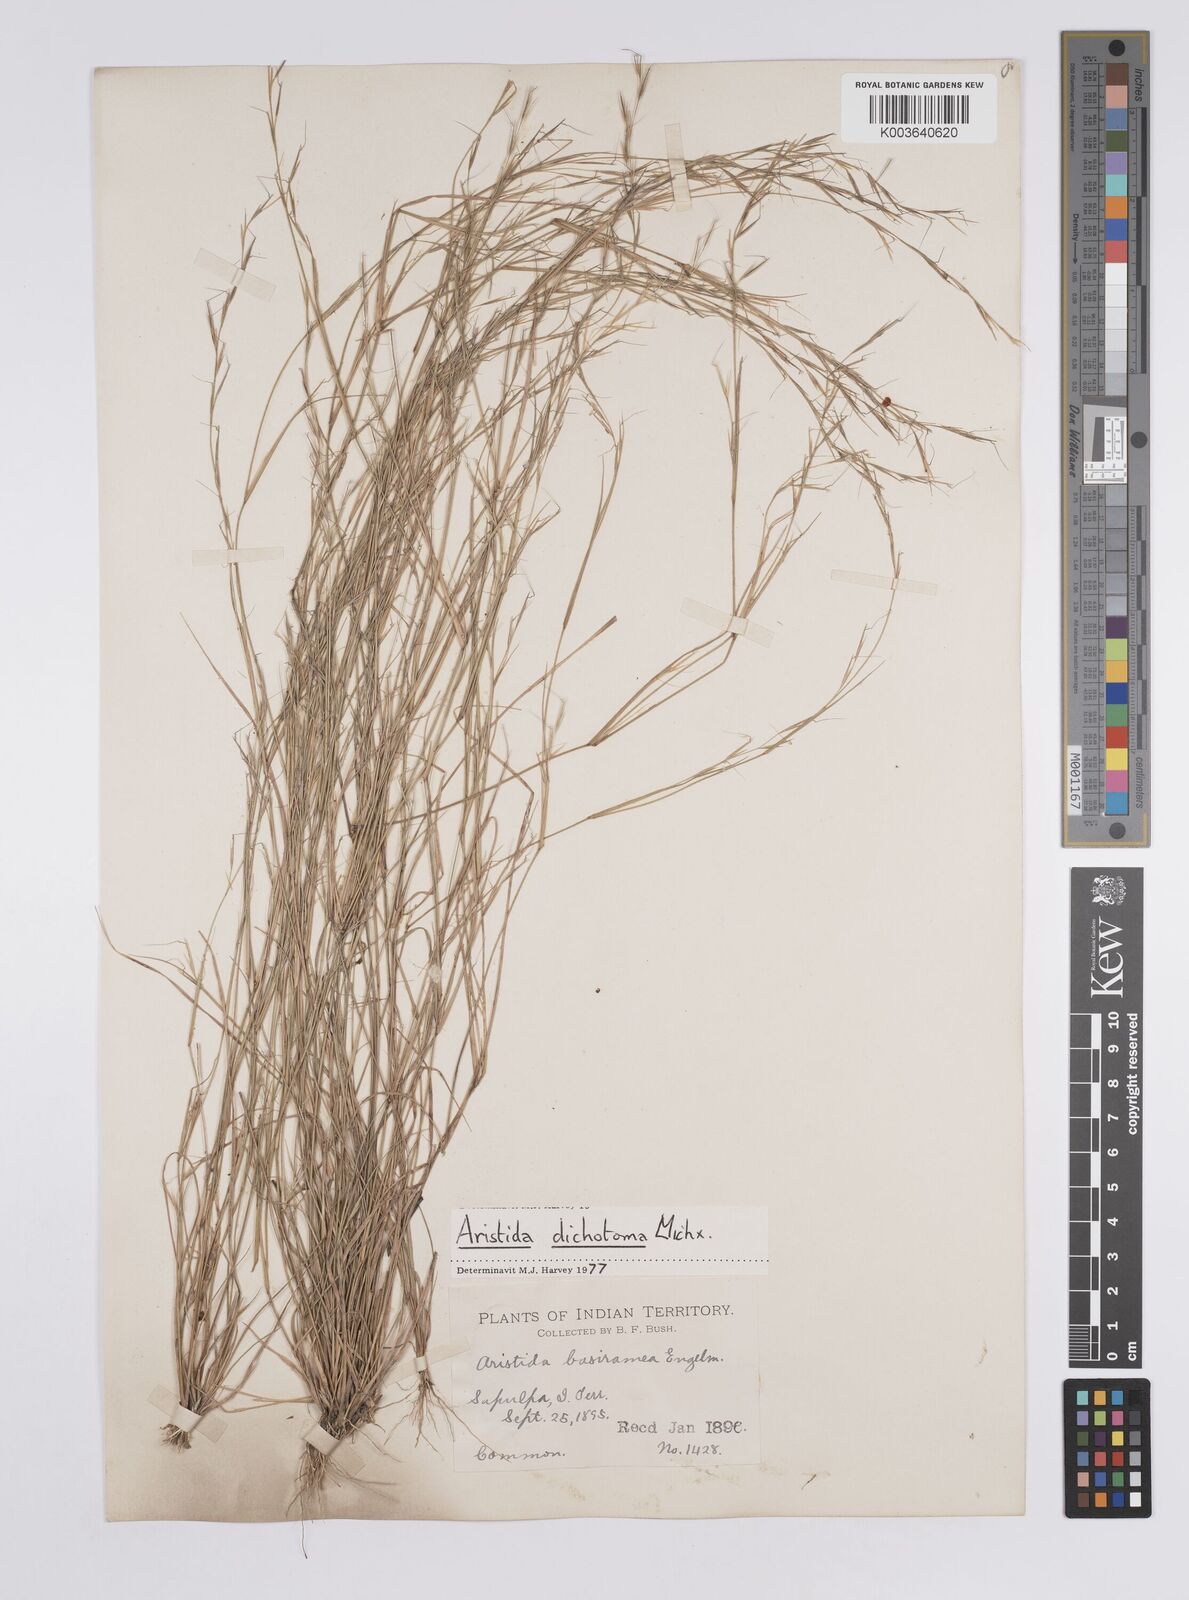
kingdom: Plantae
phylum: Tracheophyta
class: Liliopsida
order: Poales
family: Poaceae
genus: Aristida
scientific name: Aristida dichotoma
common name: Churchmouse three-awn
